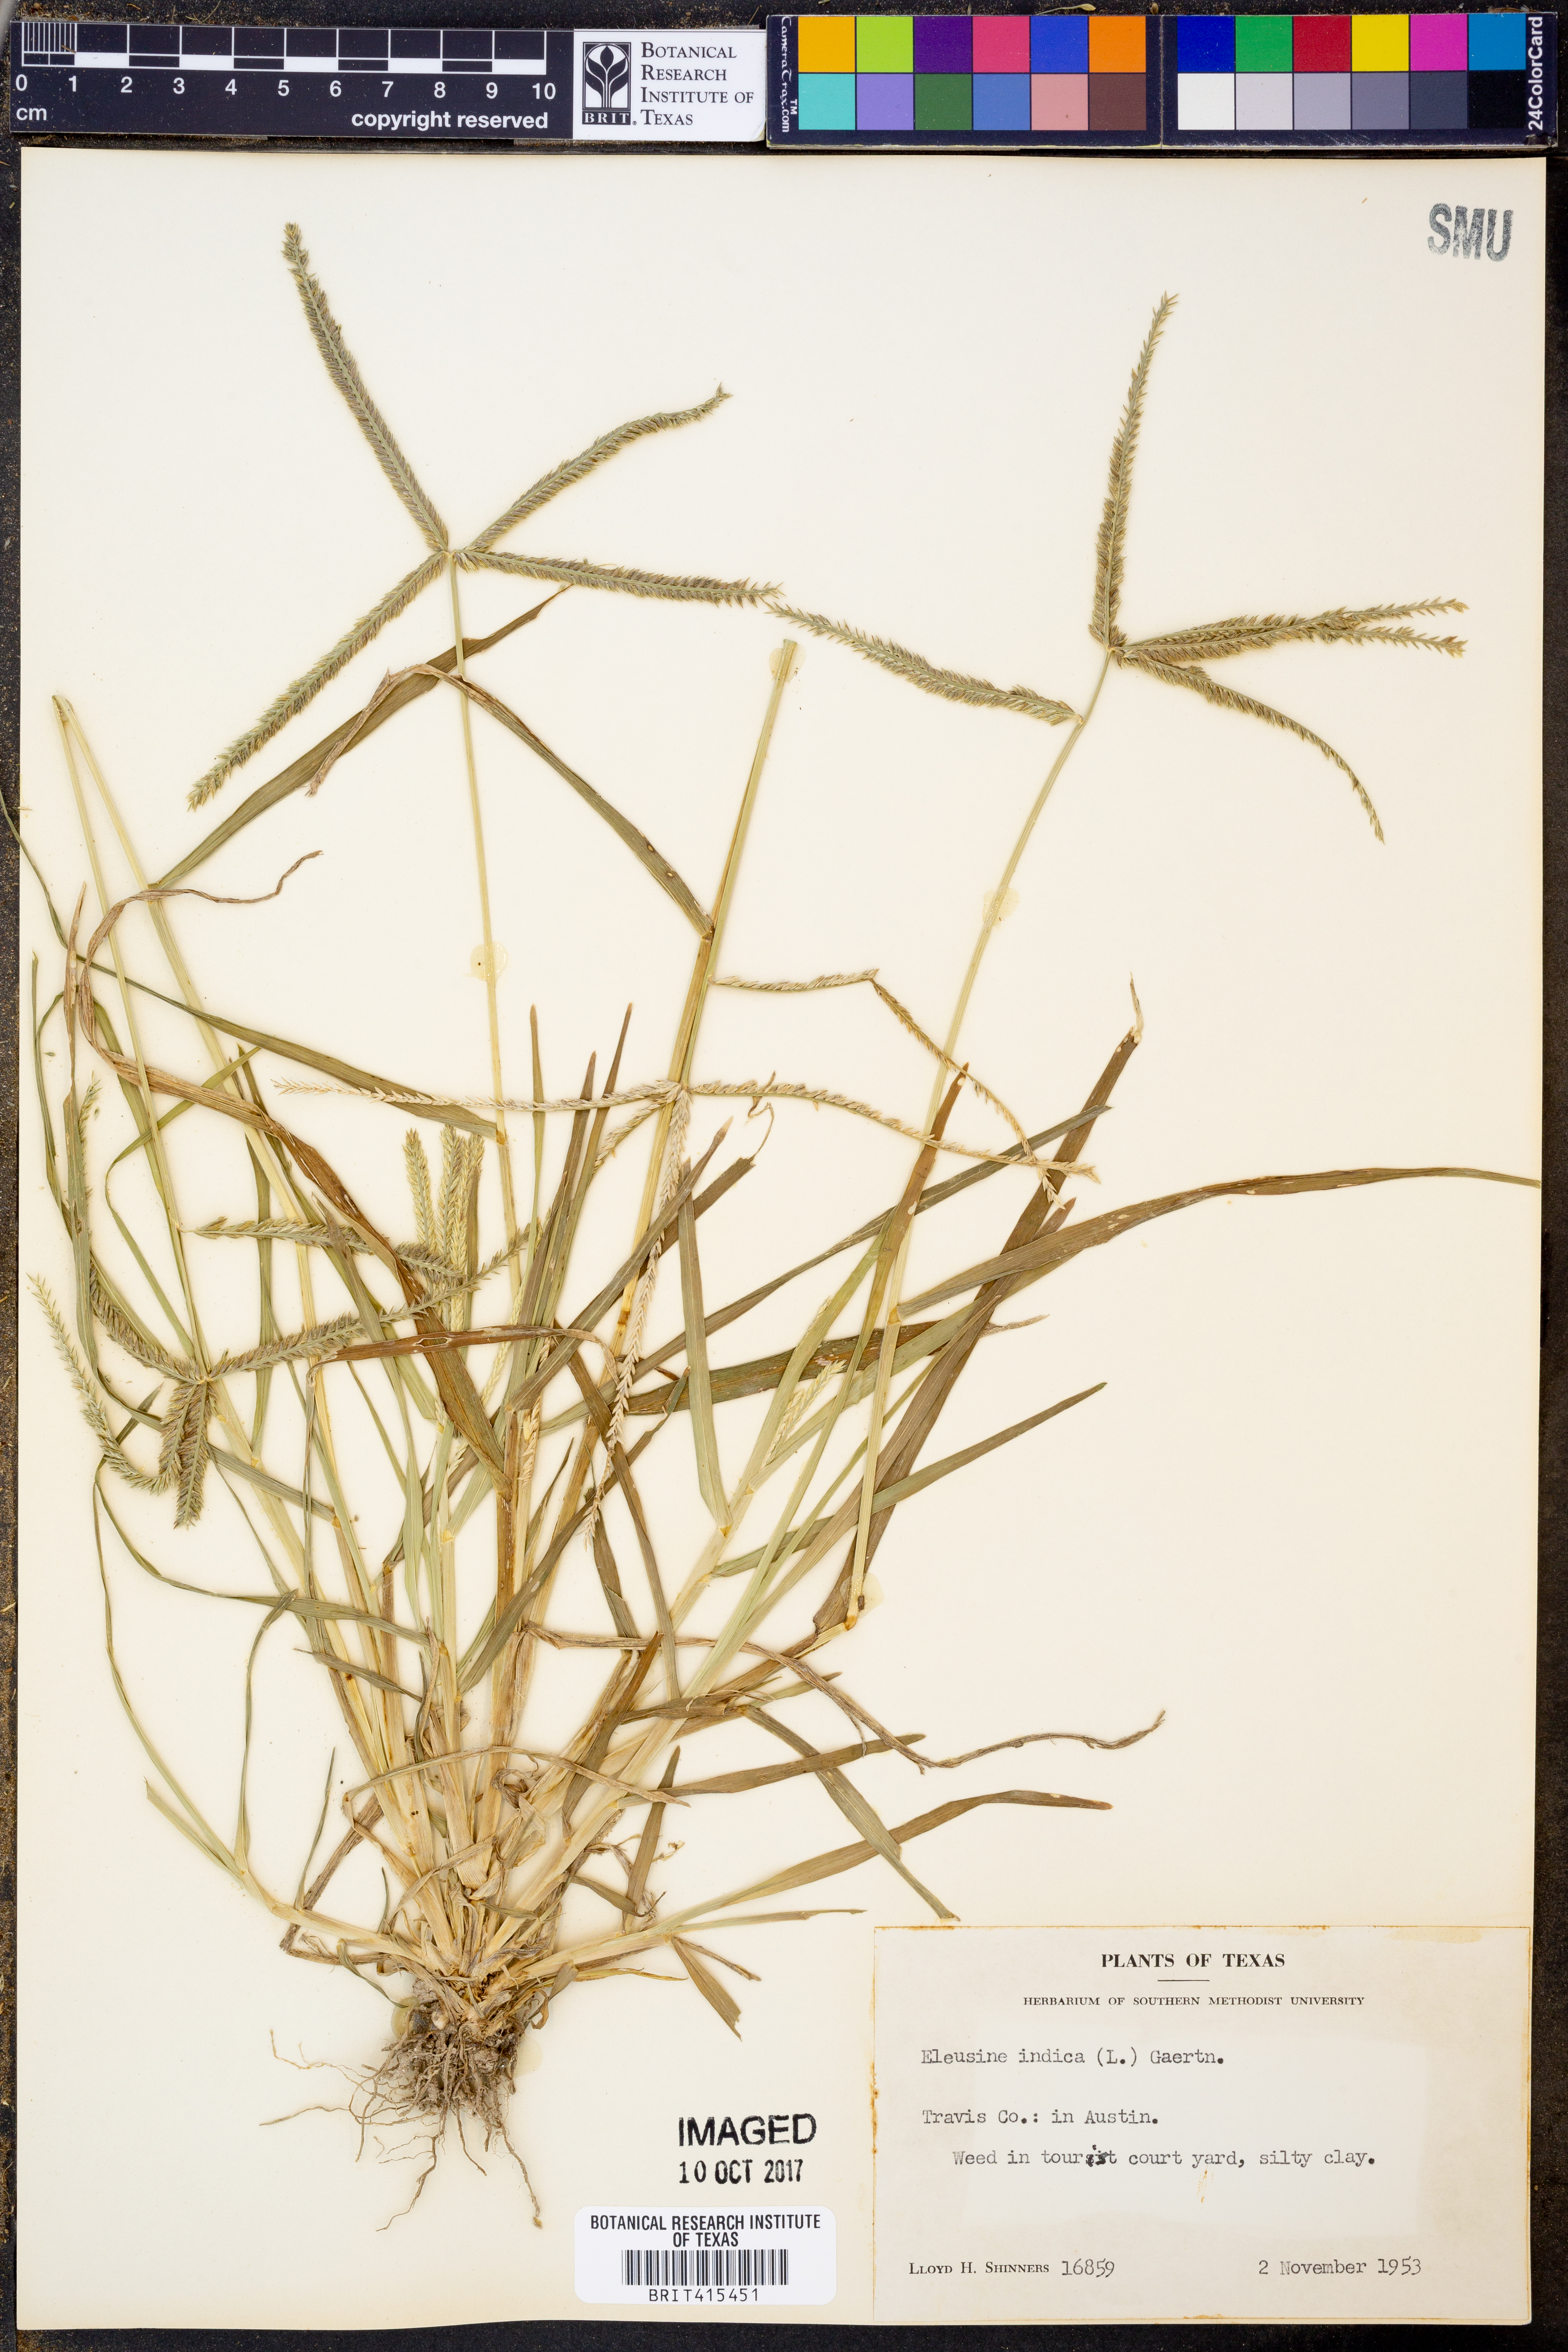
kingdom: Plantae
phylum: Tracheophyta
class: Liliopsida
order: Poales
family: Poaceae
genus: Eleusine
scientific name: Eleusine indica
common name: Yard-grass
